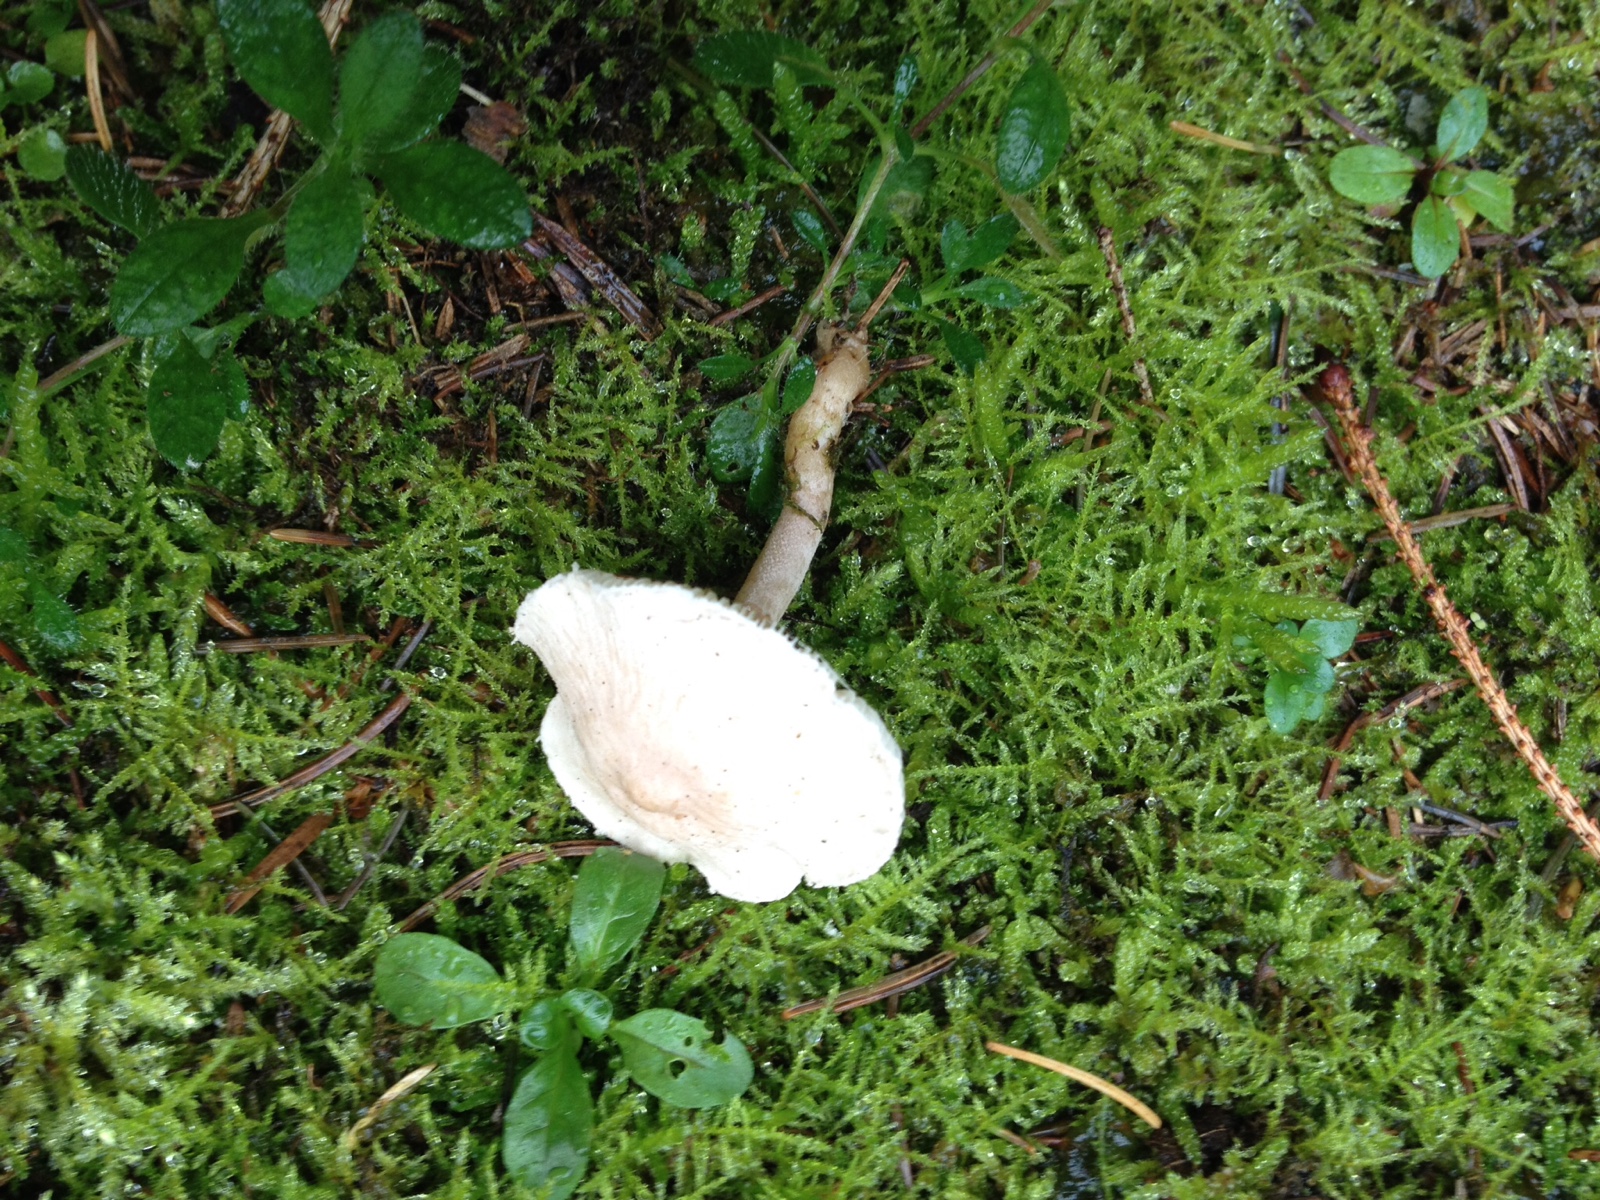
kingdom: Fungi
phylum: Basidiomycota
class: Agaricomycetes
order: Agaricales
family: Tricholomataceae
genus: Cystoderma
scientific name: Cystoderma carcharias
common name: rødgrå grynhat
